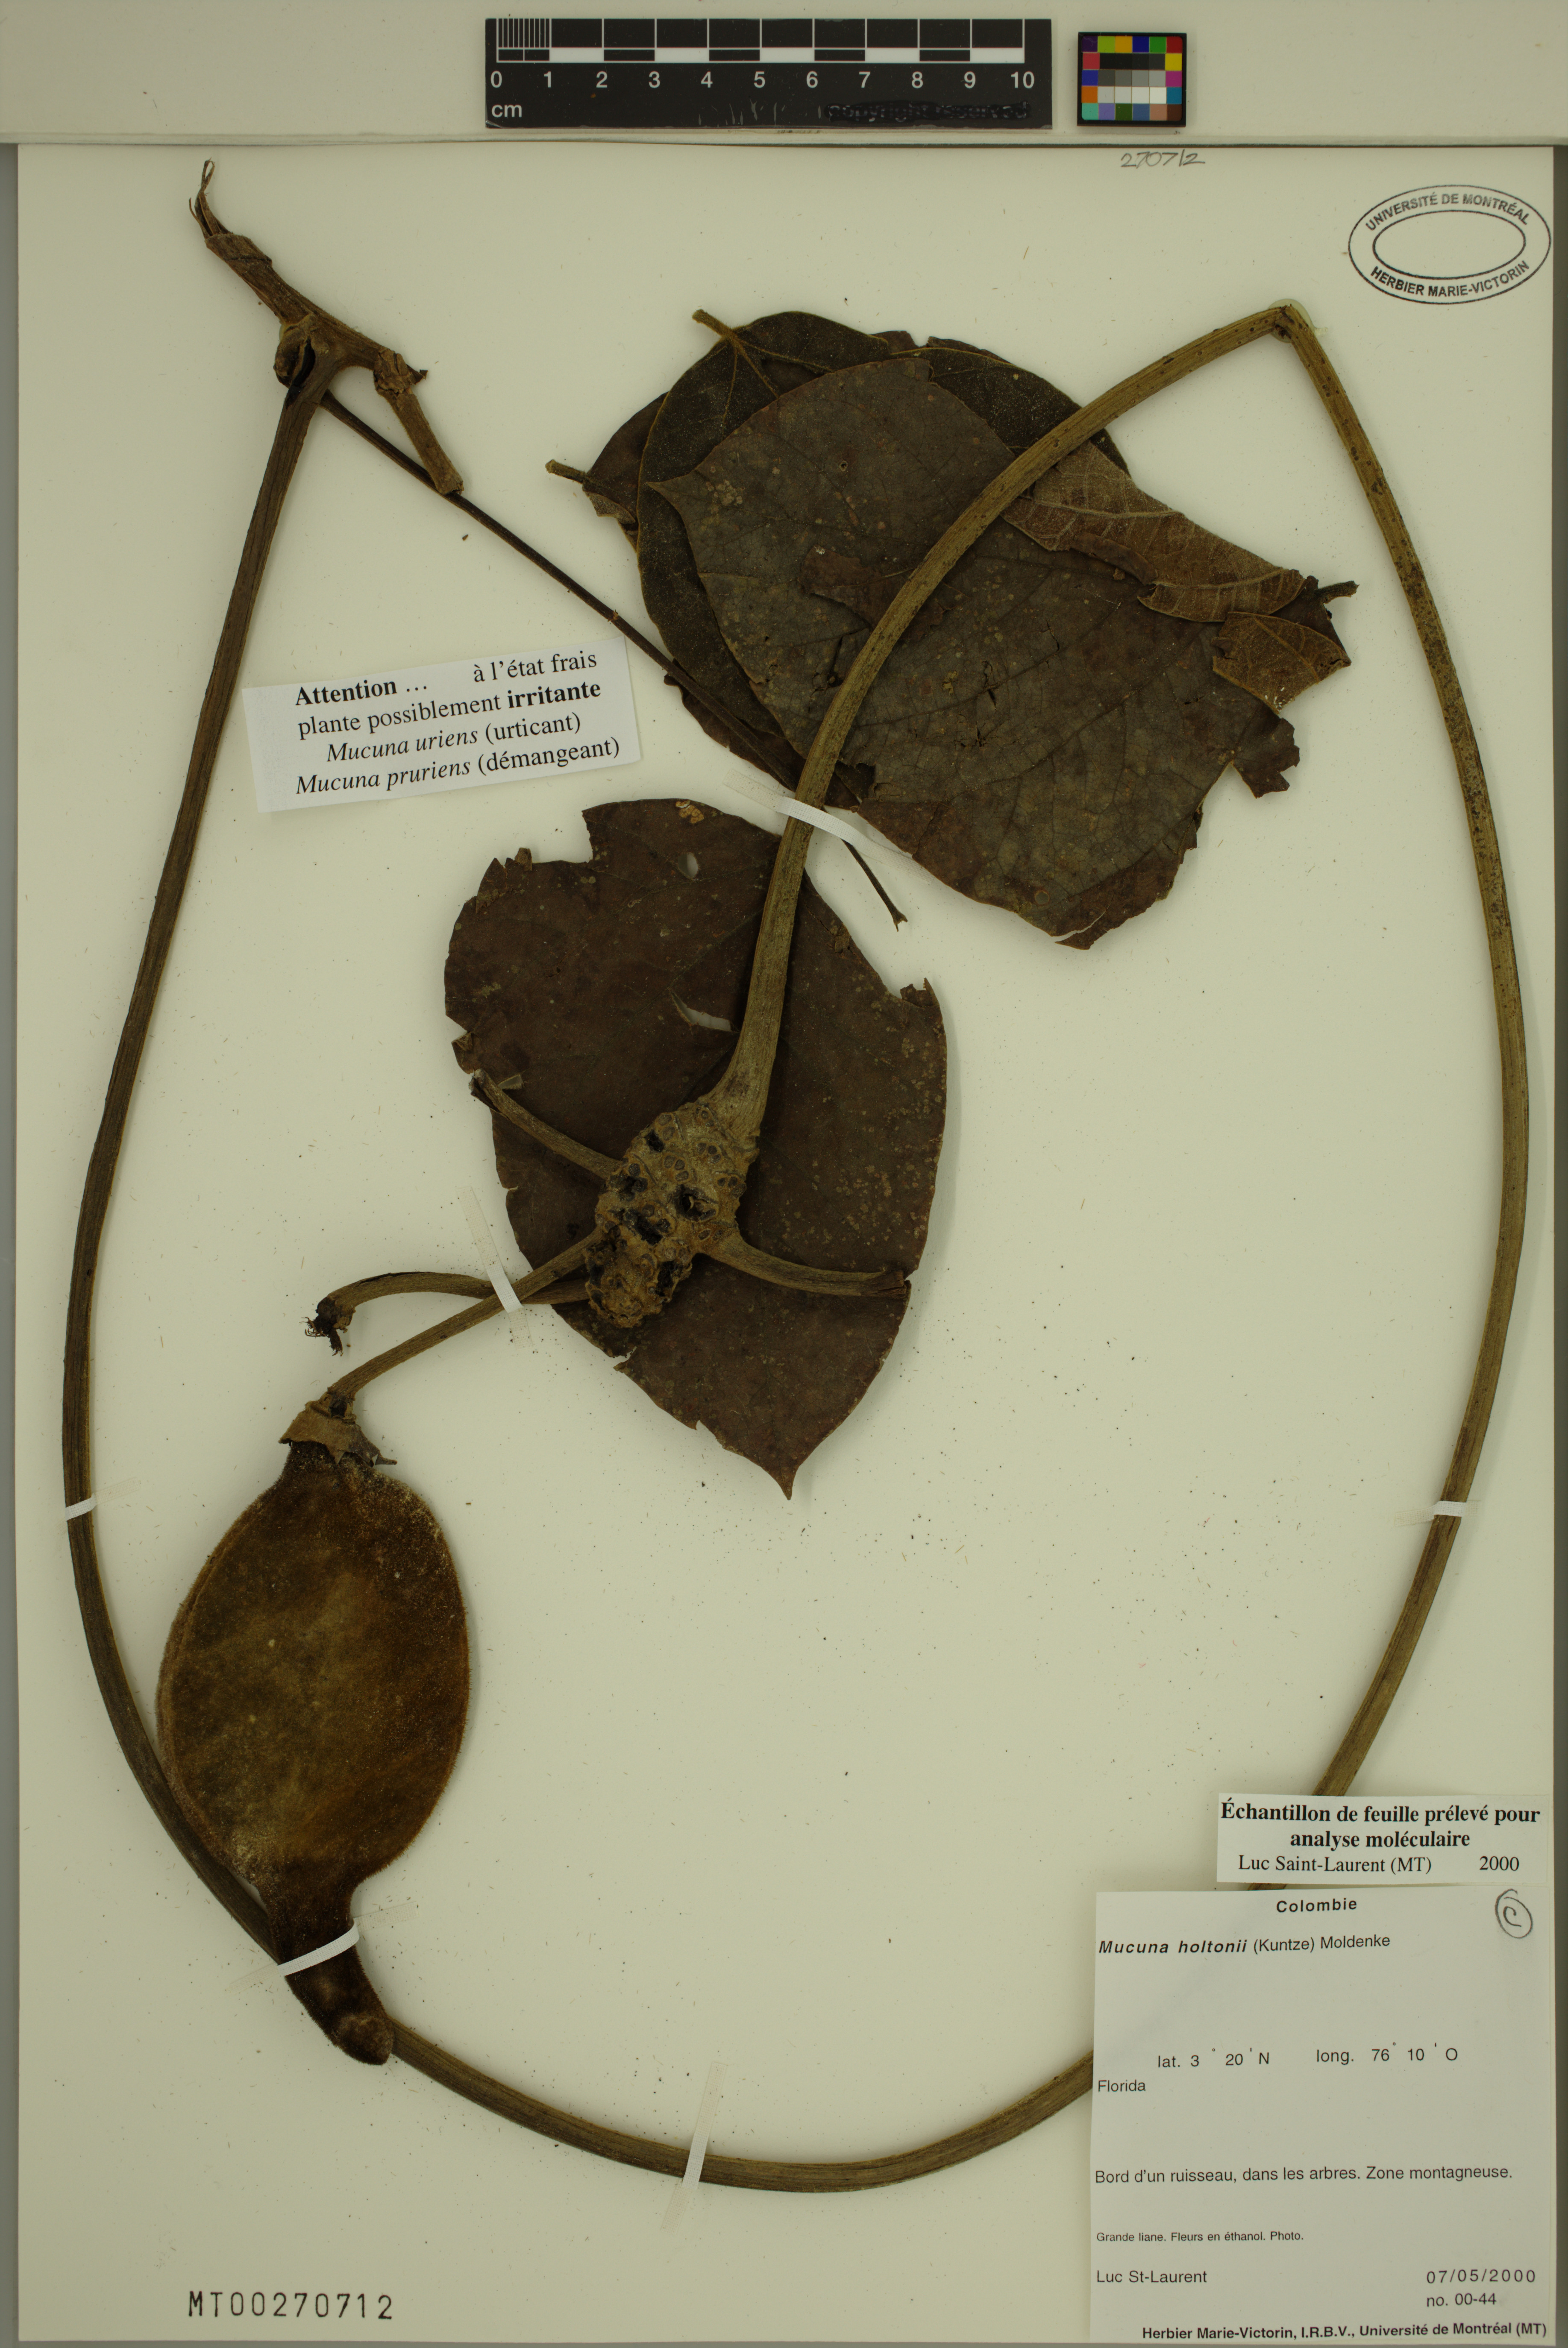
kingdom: Plantae
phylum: Tracheophyta
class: Magnoliopsida
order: Fabales
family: Fabaceae
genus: Mucuna
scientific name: Mucuna holtonii
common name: Hamburger bean
